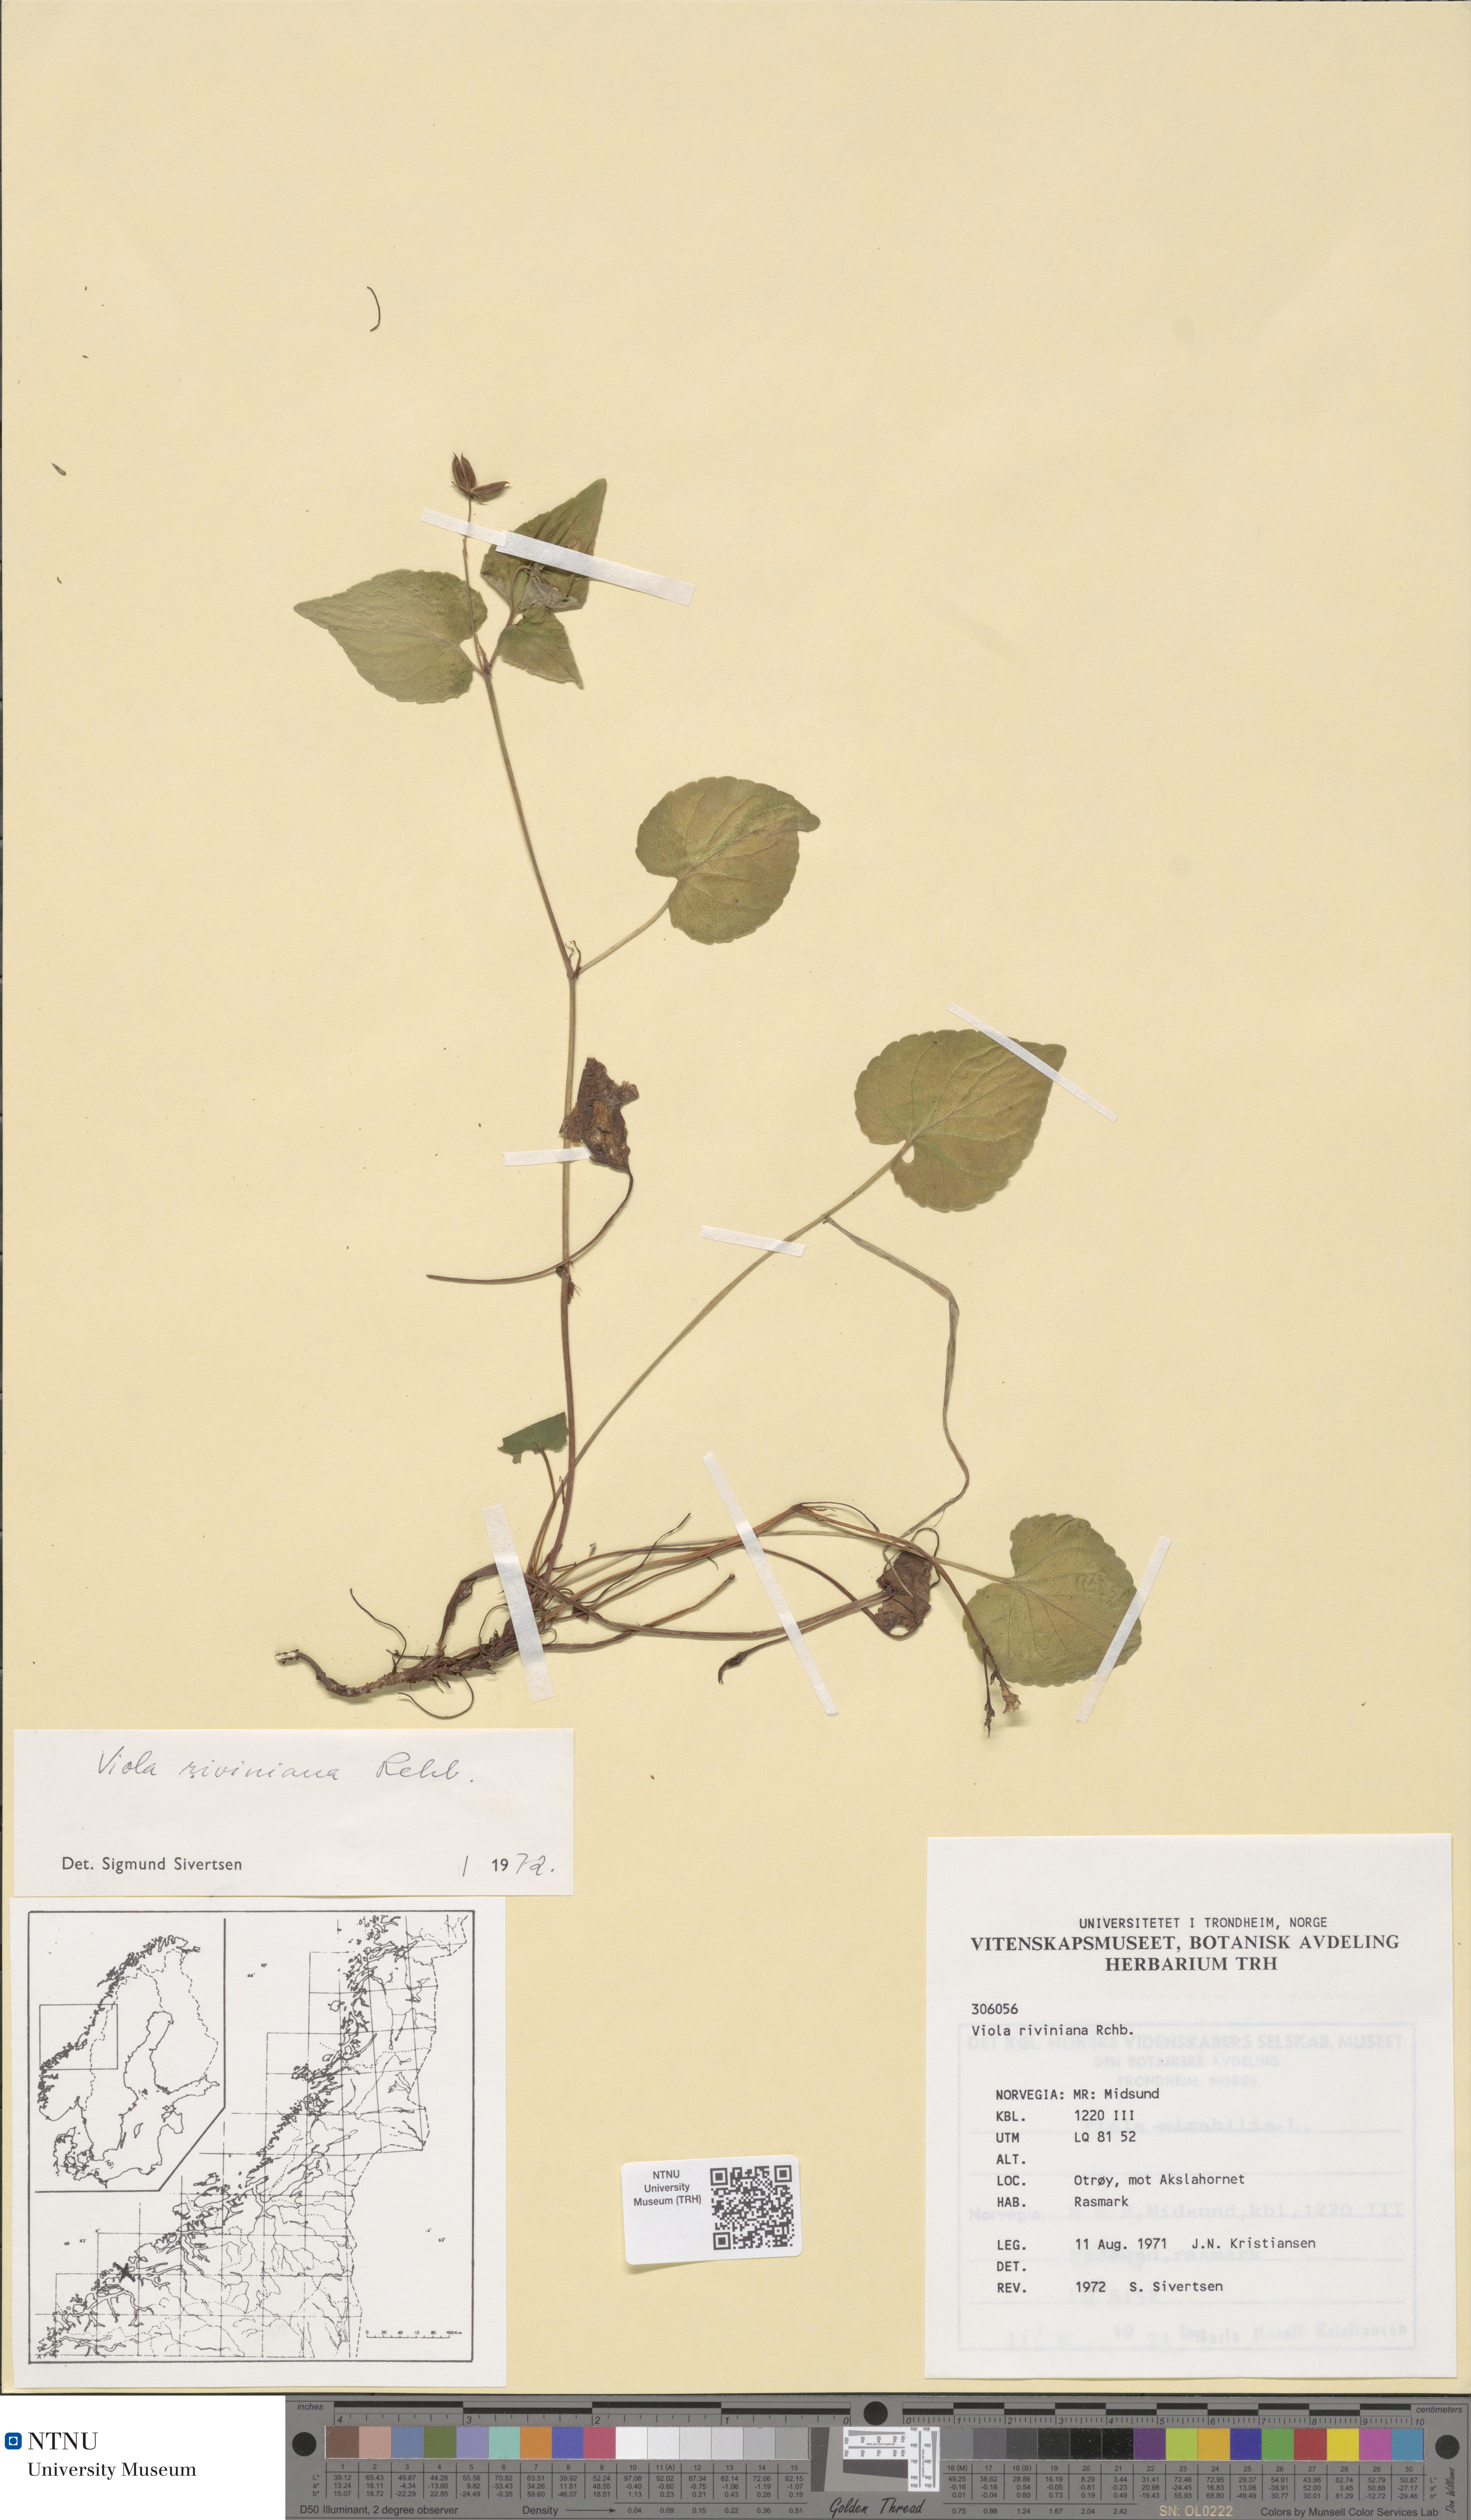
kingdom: Plantae
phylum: Tracheophyta
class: Magnoliopsida
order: Malpighiales
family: Violaceae
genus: Viola
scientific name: Viola riviniana
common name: Common dog-violet
